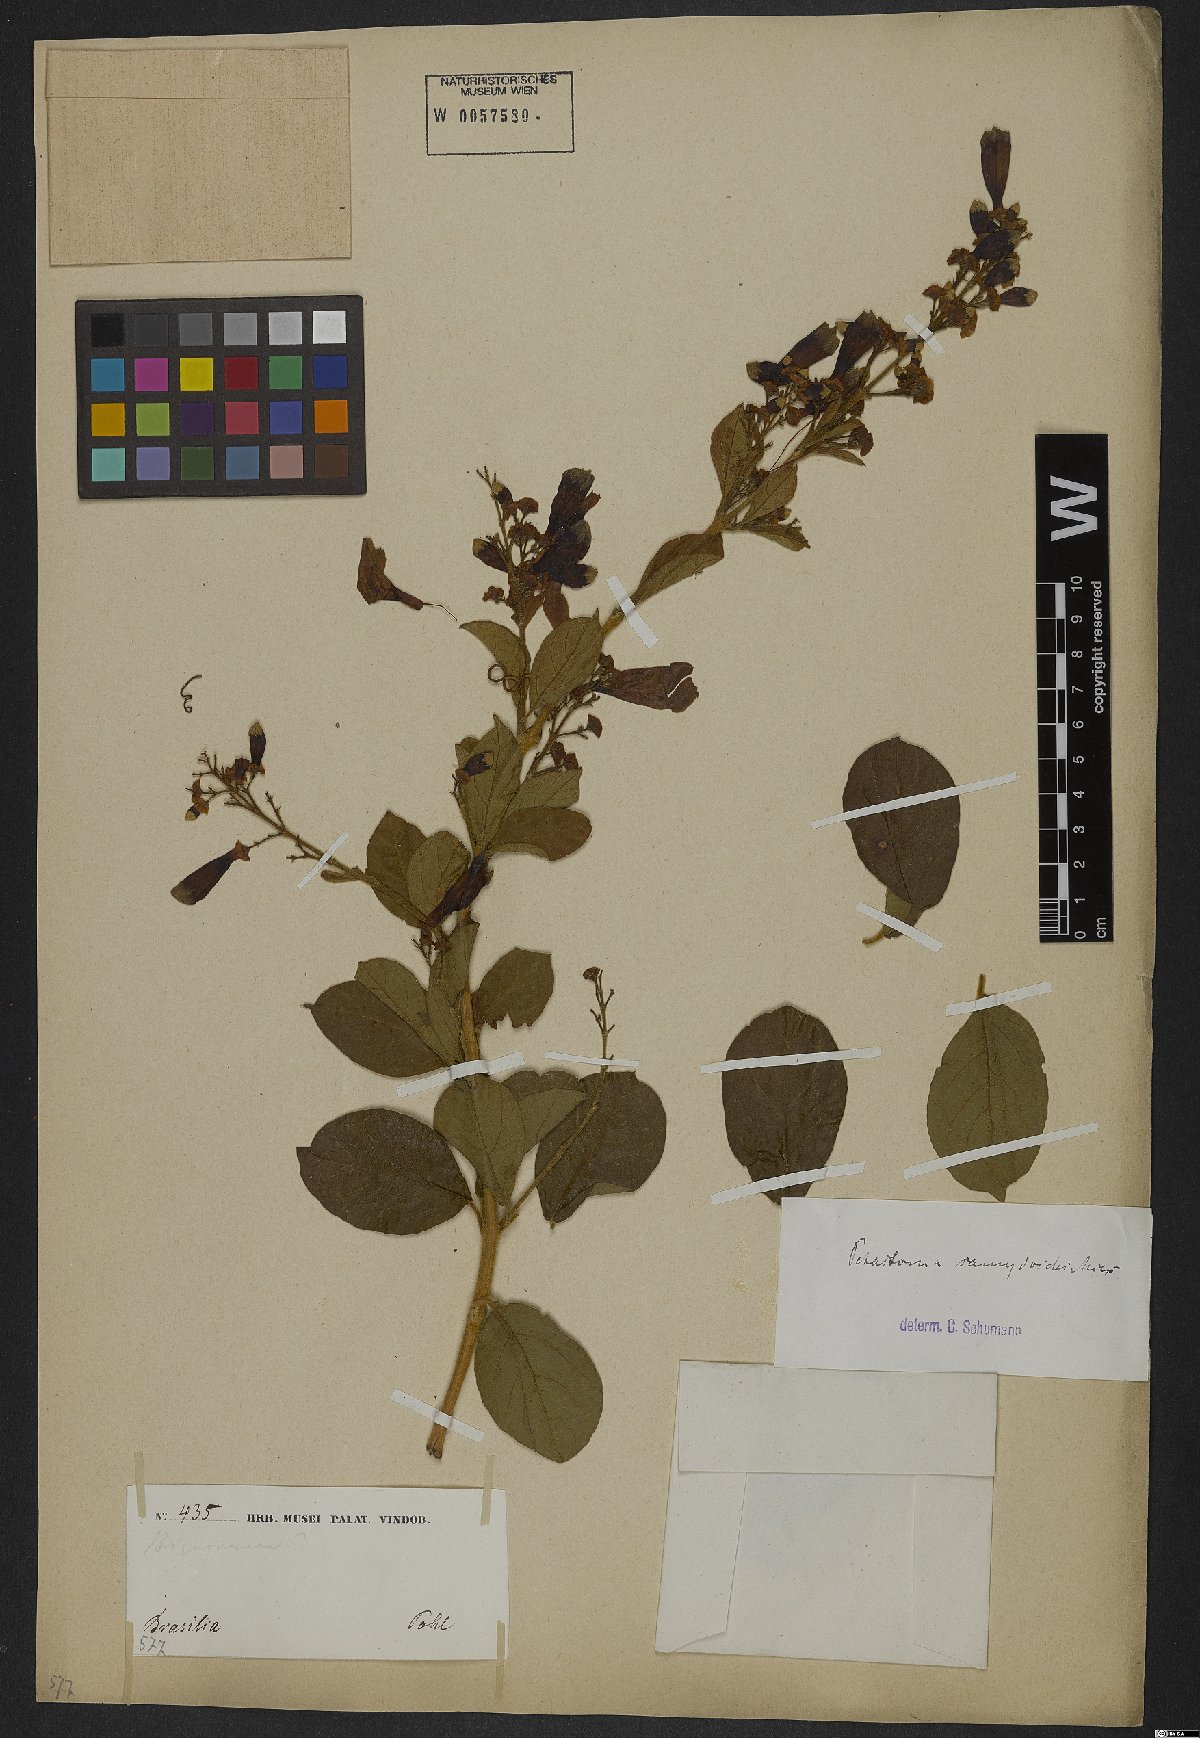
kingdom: Plantae
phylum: Tracheophyta
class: Magnoliopsida
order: Lamiales
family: Bignoniaceae
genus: Fridericia
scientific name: Fridericia samydoides
